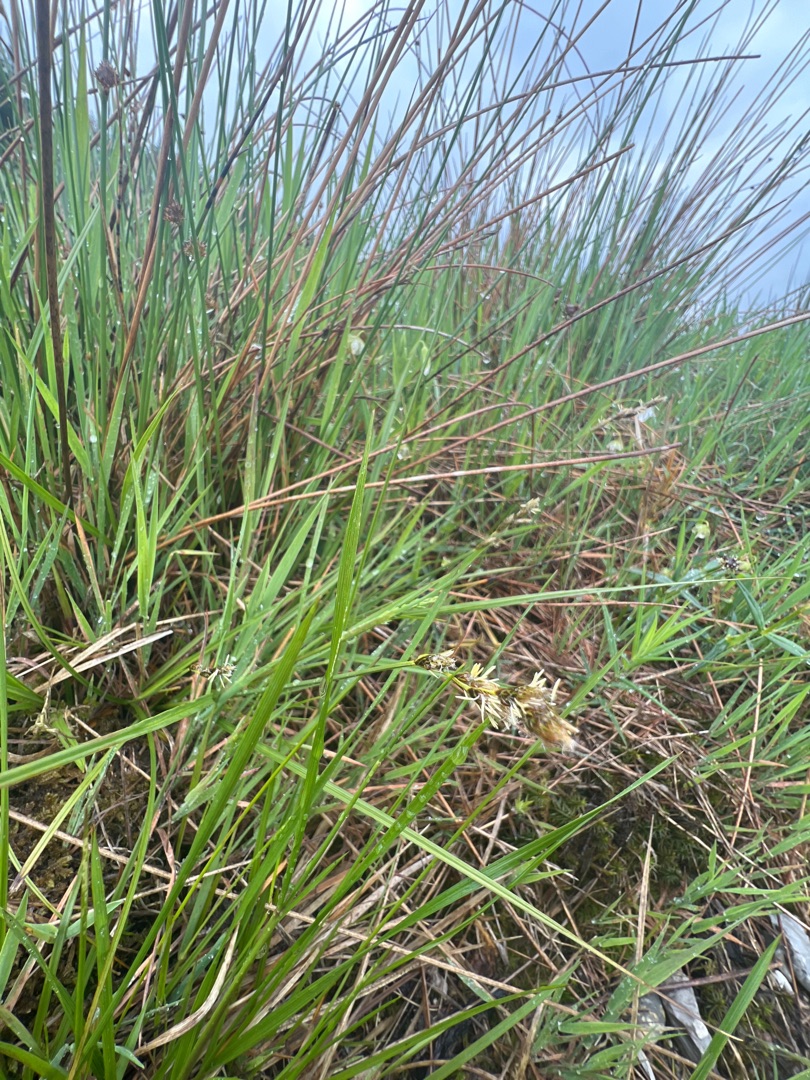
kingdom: Plantae
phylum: Tracheophyta
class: Liliopsida
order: Poales
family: Cyperaceae
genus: Carex
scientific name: Carex leporina
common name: Hare-star
